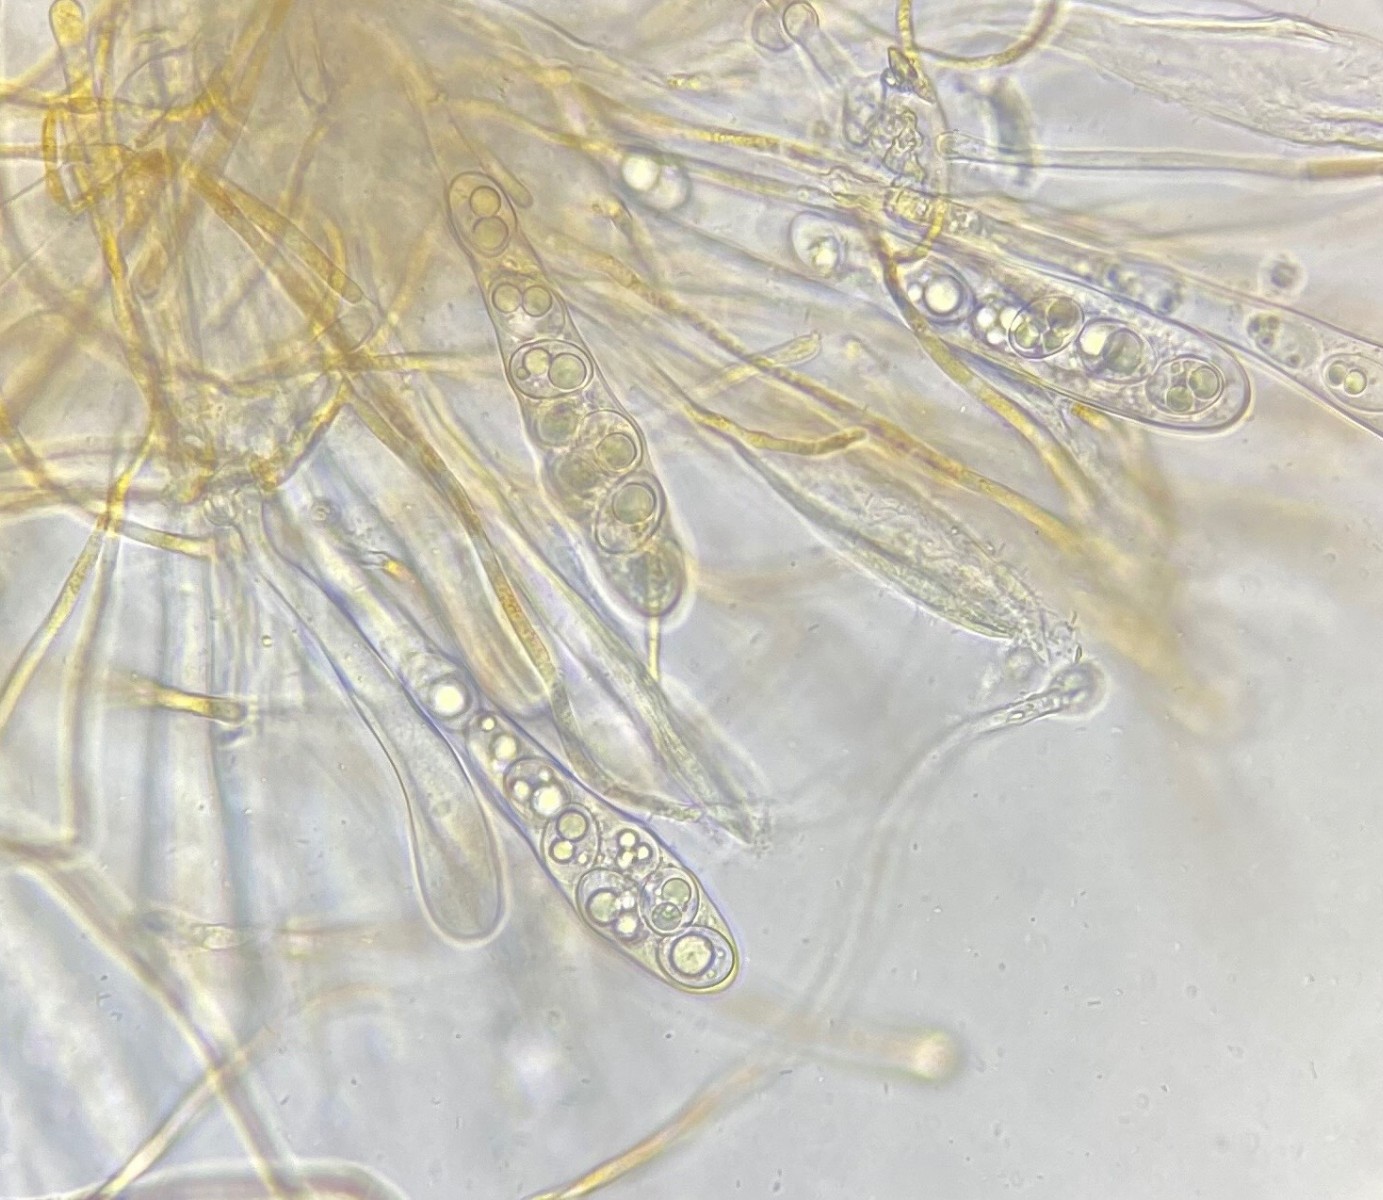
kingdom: Fungi
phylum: Ascomycota
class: Pezizomycetes
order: Pezizales
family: Pyronemataceae
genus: Octospora
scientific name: Octospora
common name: mosbæger
